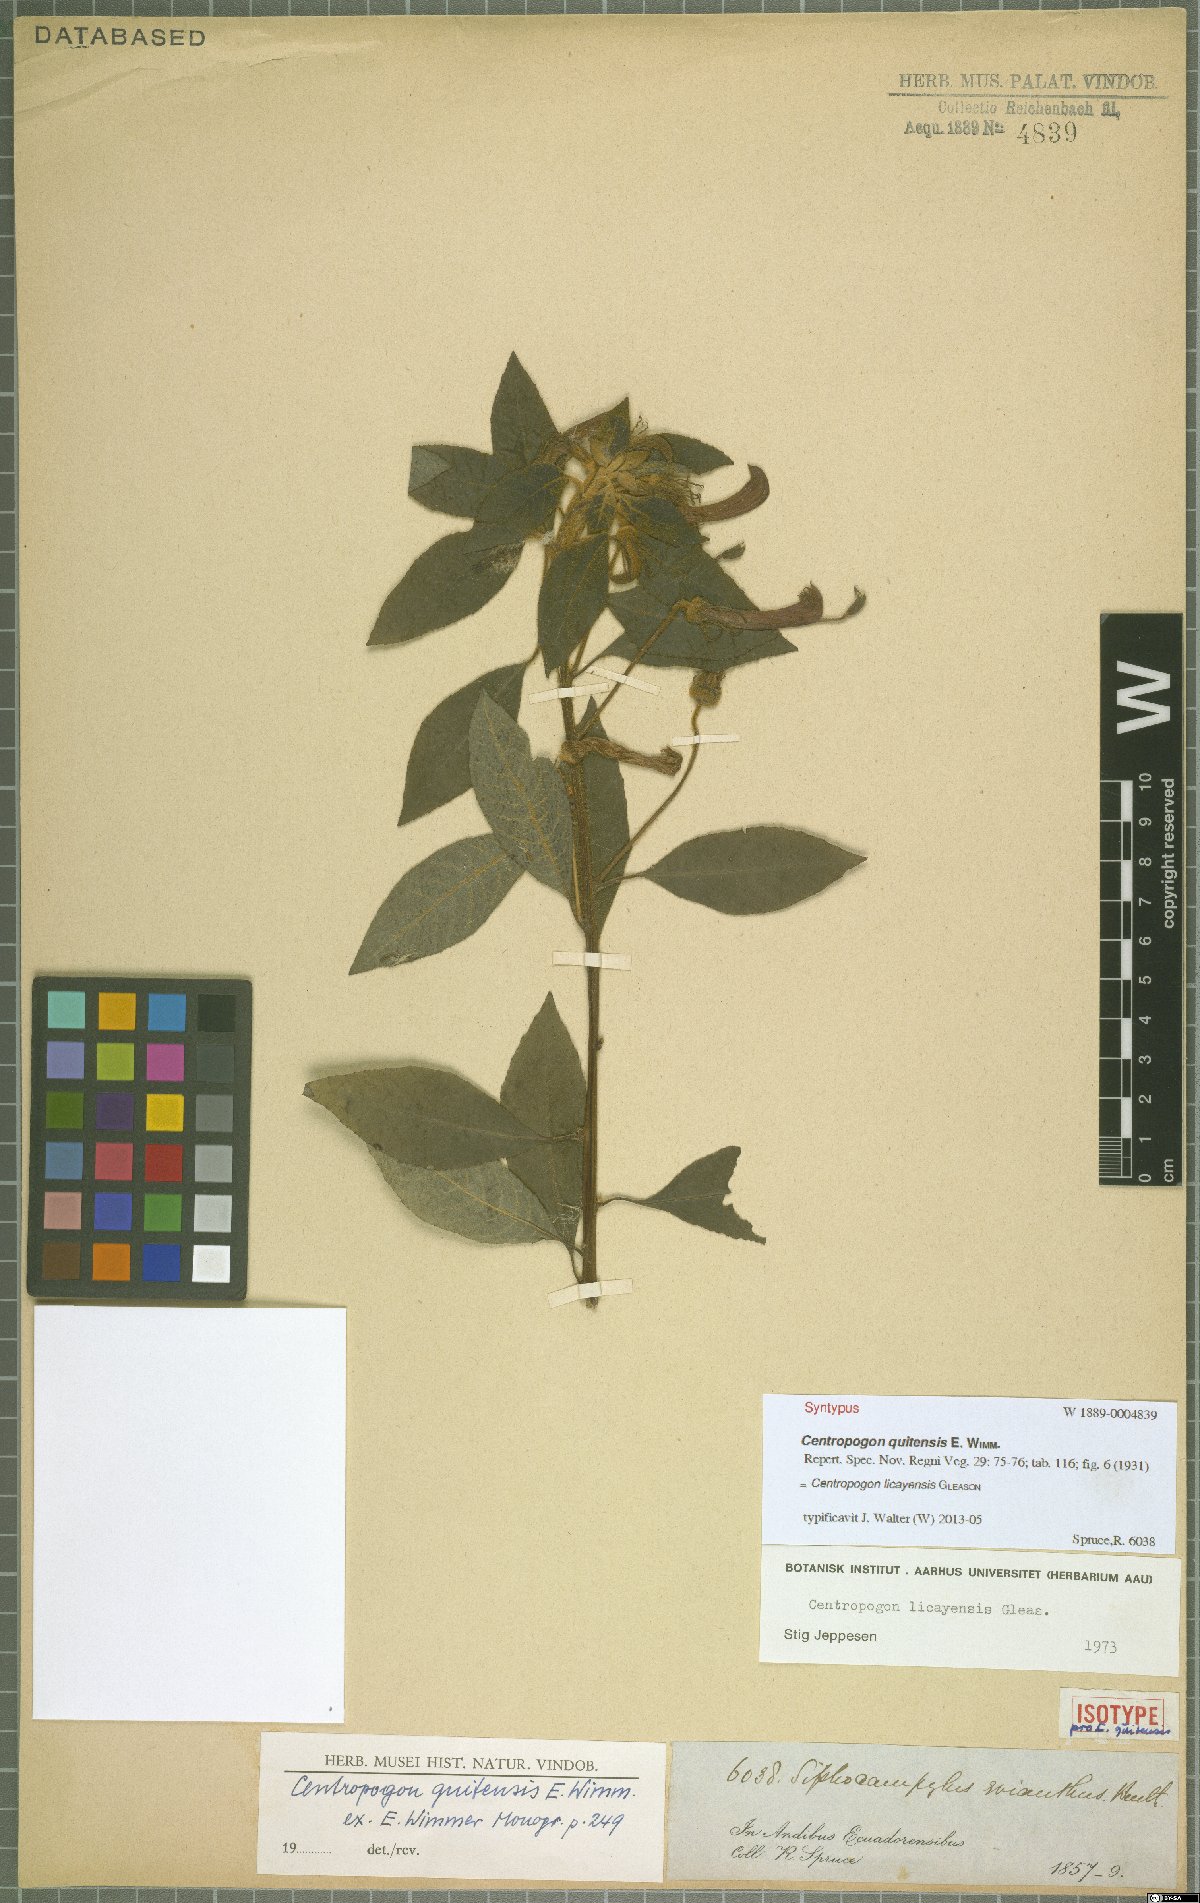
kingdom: Plantae
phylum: Tracheophyta
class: Magnoliopsida
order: Asterales
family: Campanulaceae
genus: Centropogon
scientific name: Centropogon licayensis
